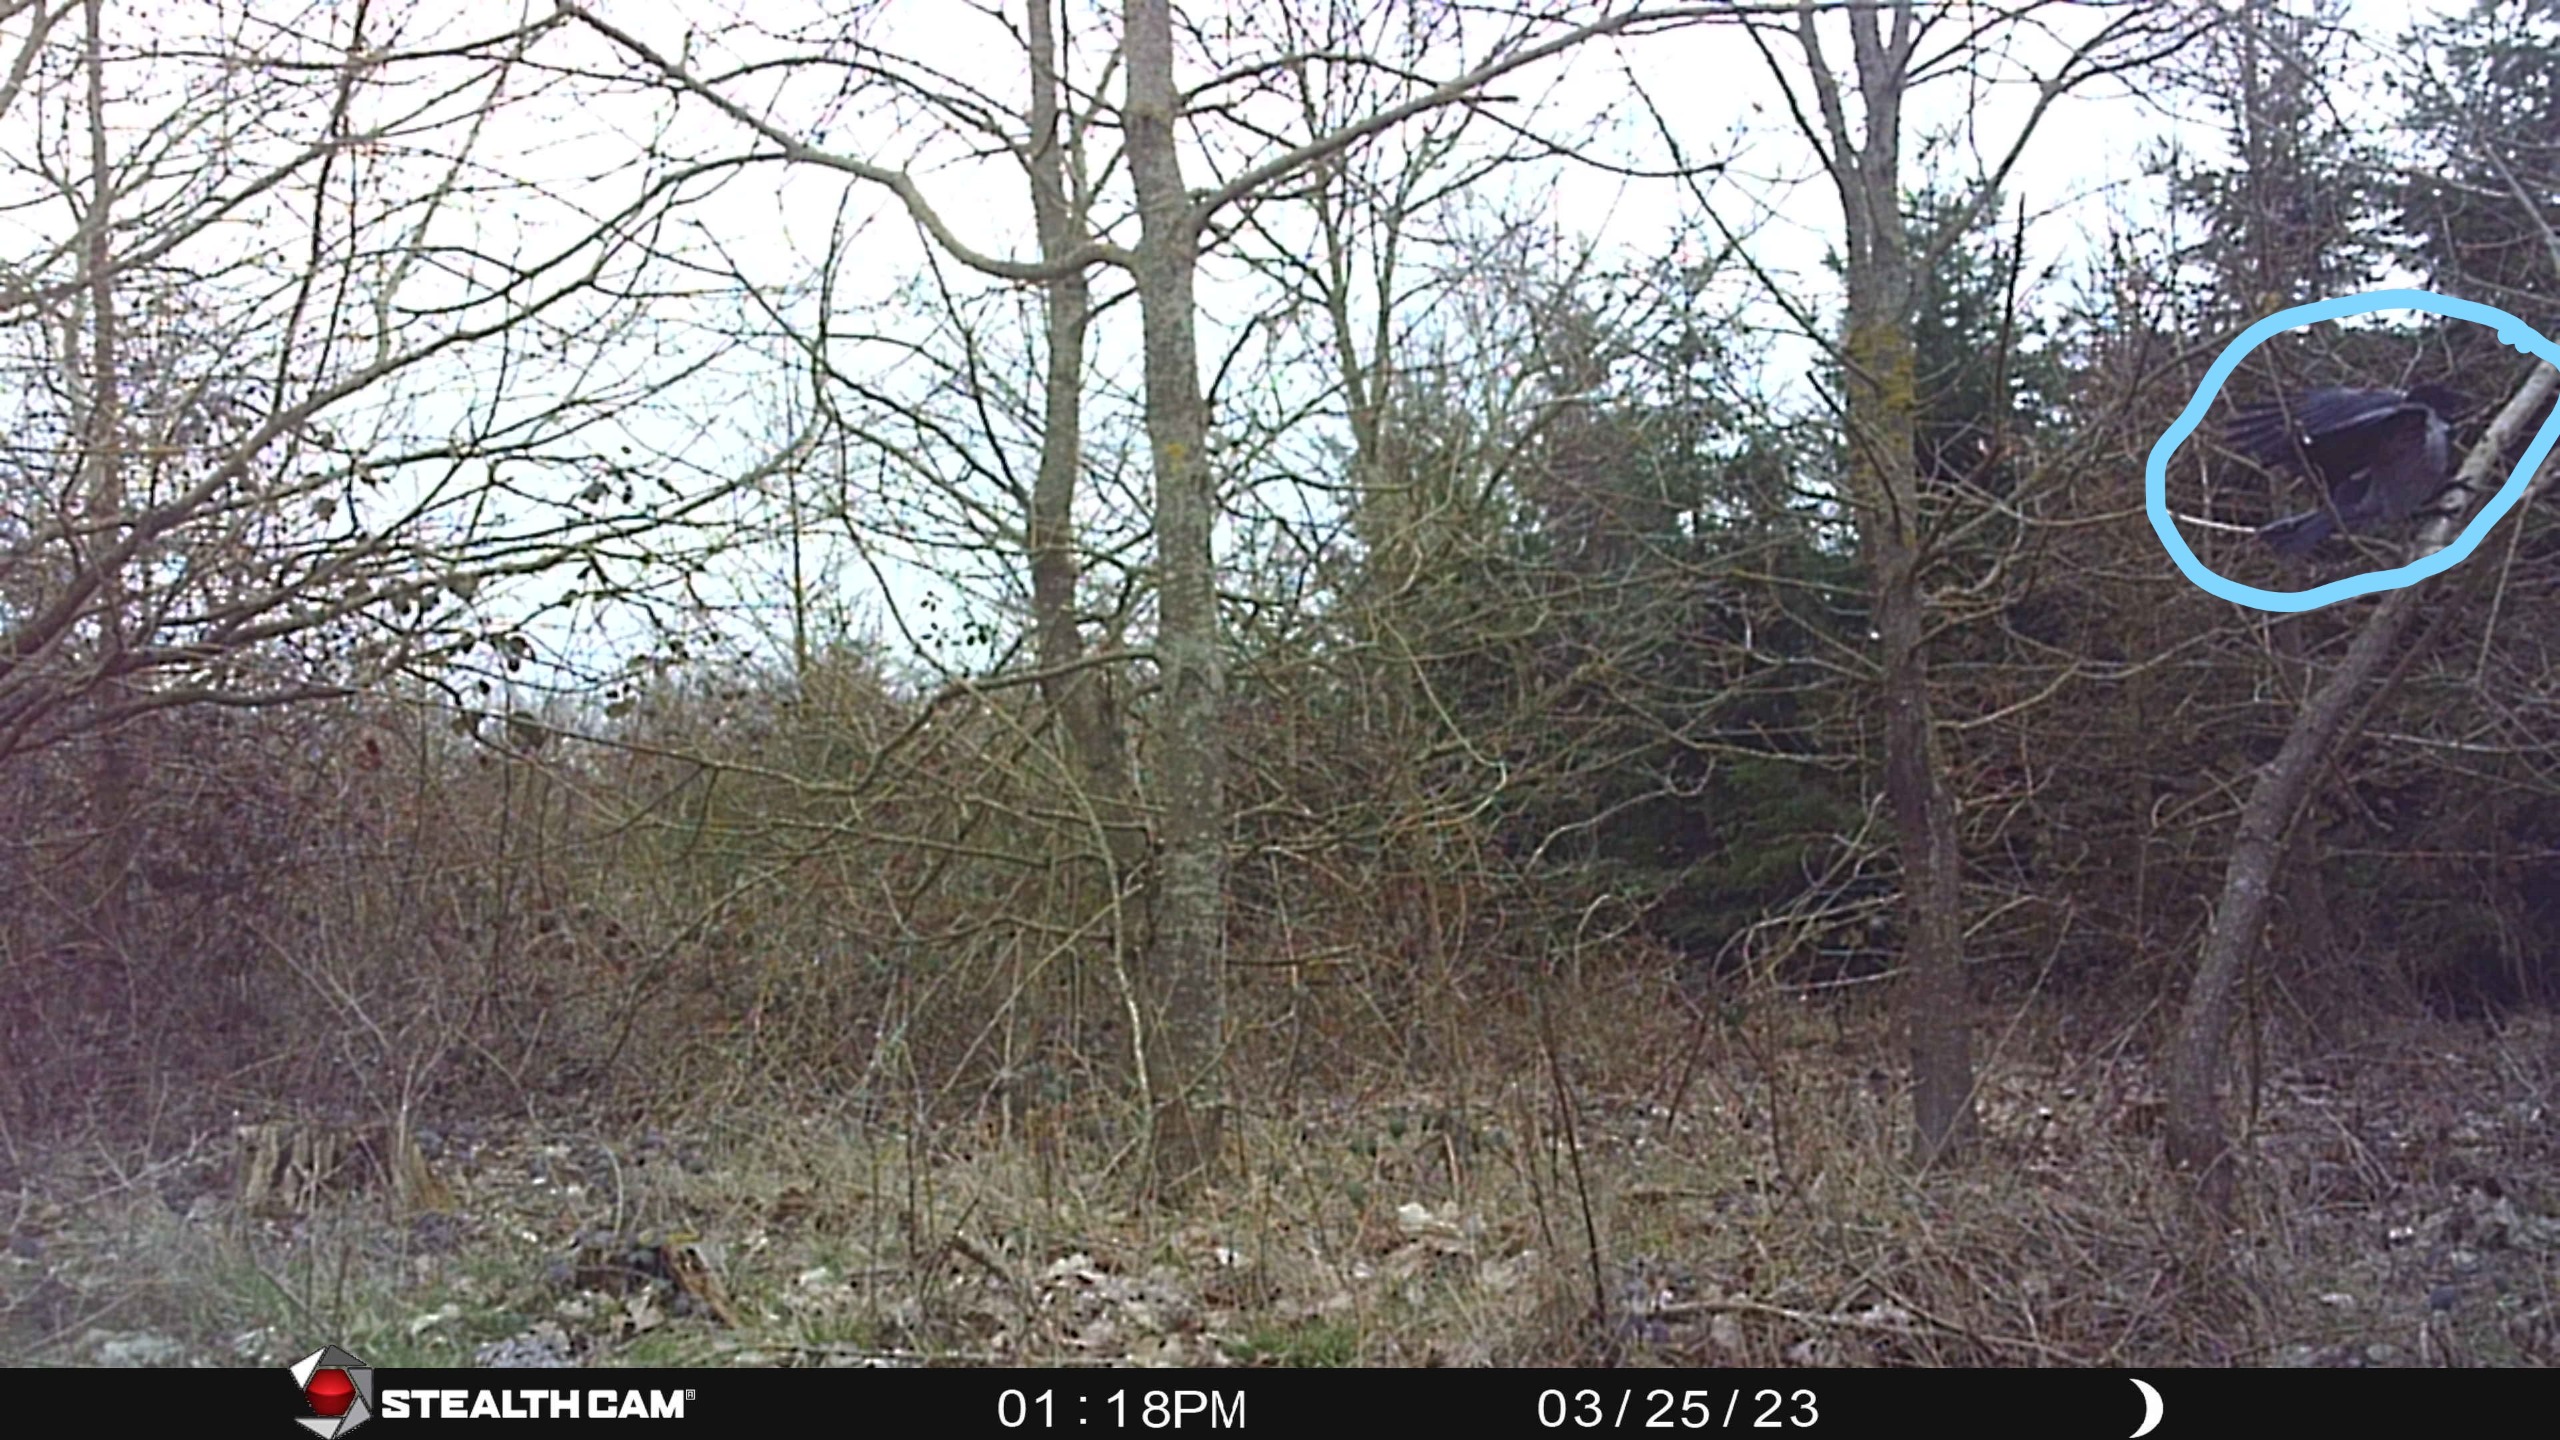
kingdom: Animalia
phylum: Chordata
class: Aves
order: Passeriformes
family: Corvidae
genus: Corvus
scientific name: Corvus cornix
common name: Gråkrage
